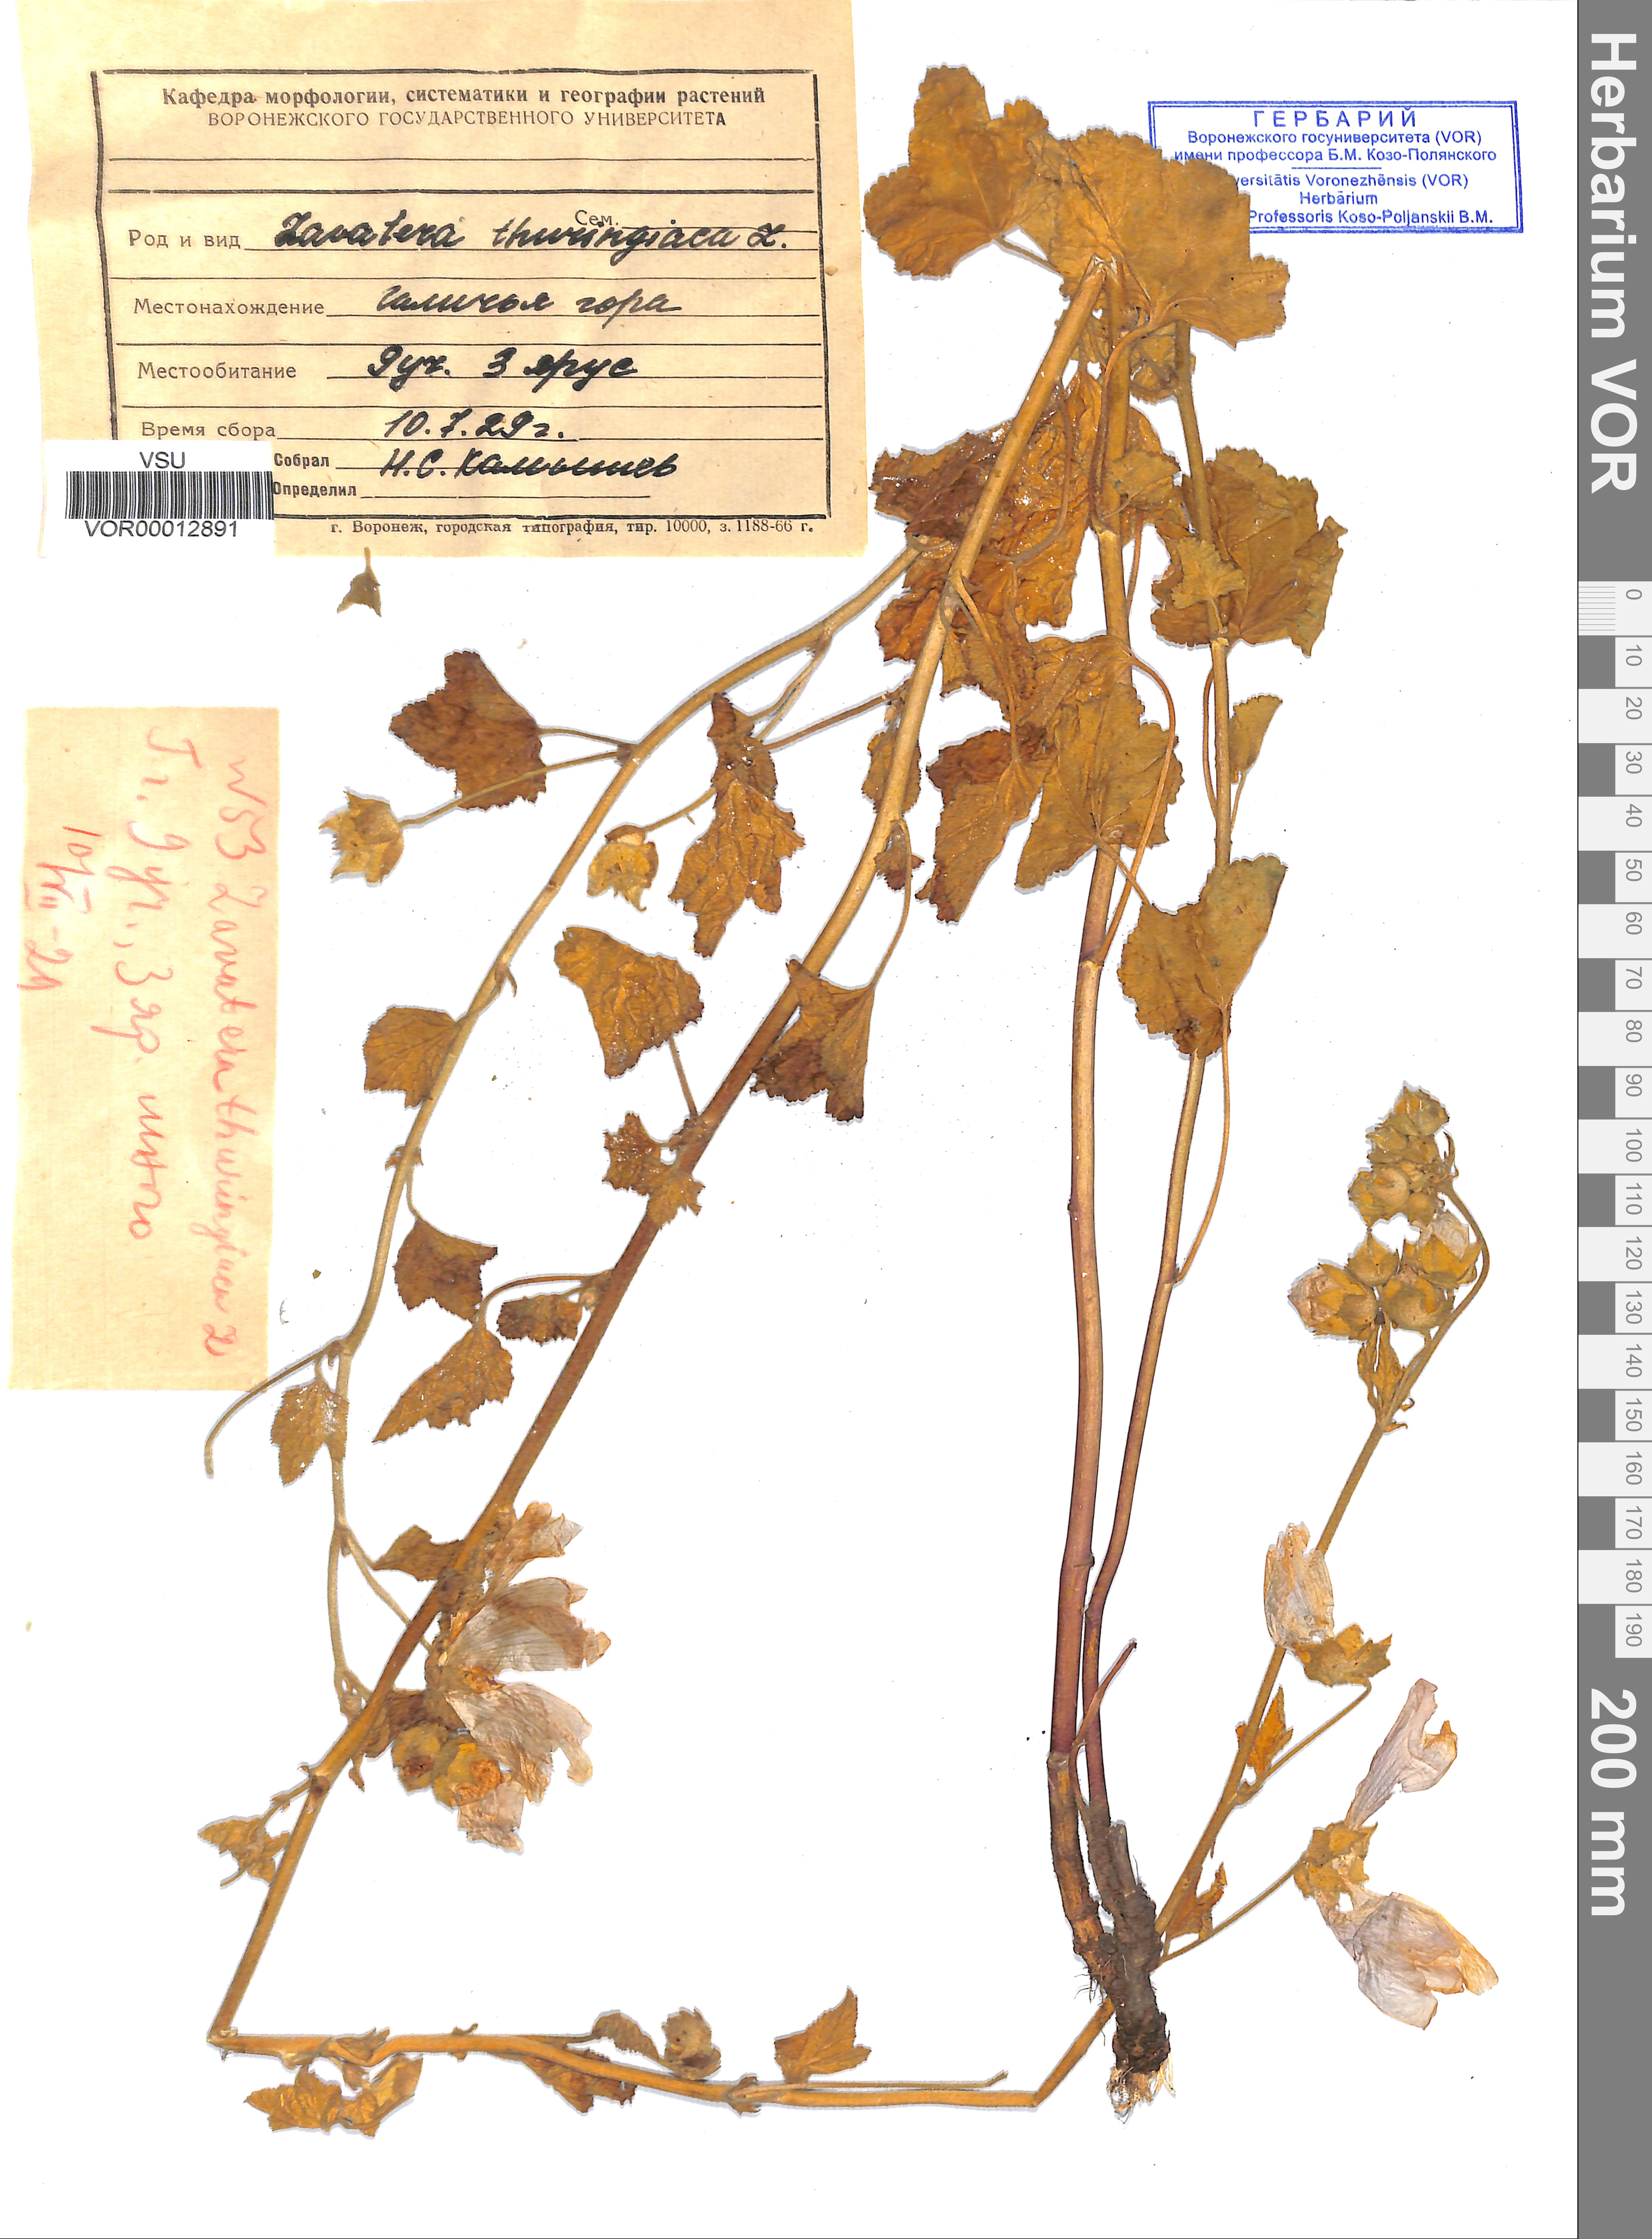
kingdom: Plantae
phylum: Tracheophyta
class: Magnoliopsida
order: Malvales
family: Malvaceae
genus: Malva
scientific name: Malva thuringiaca
